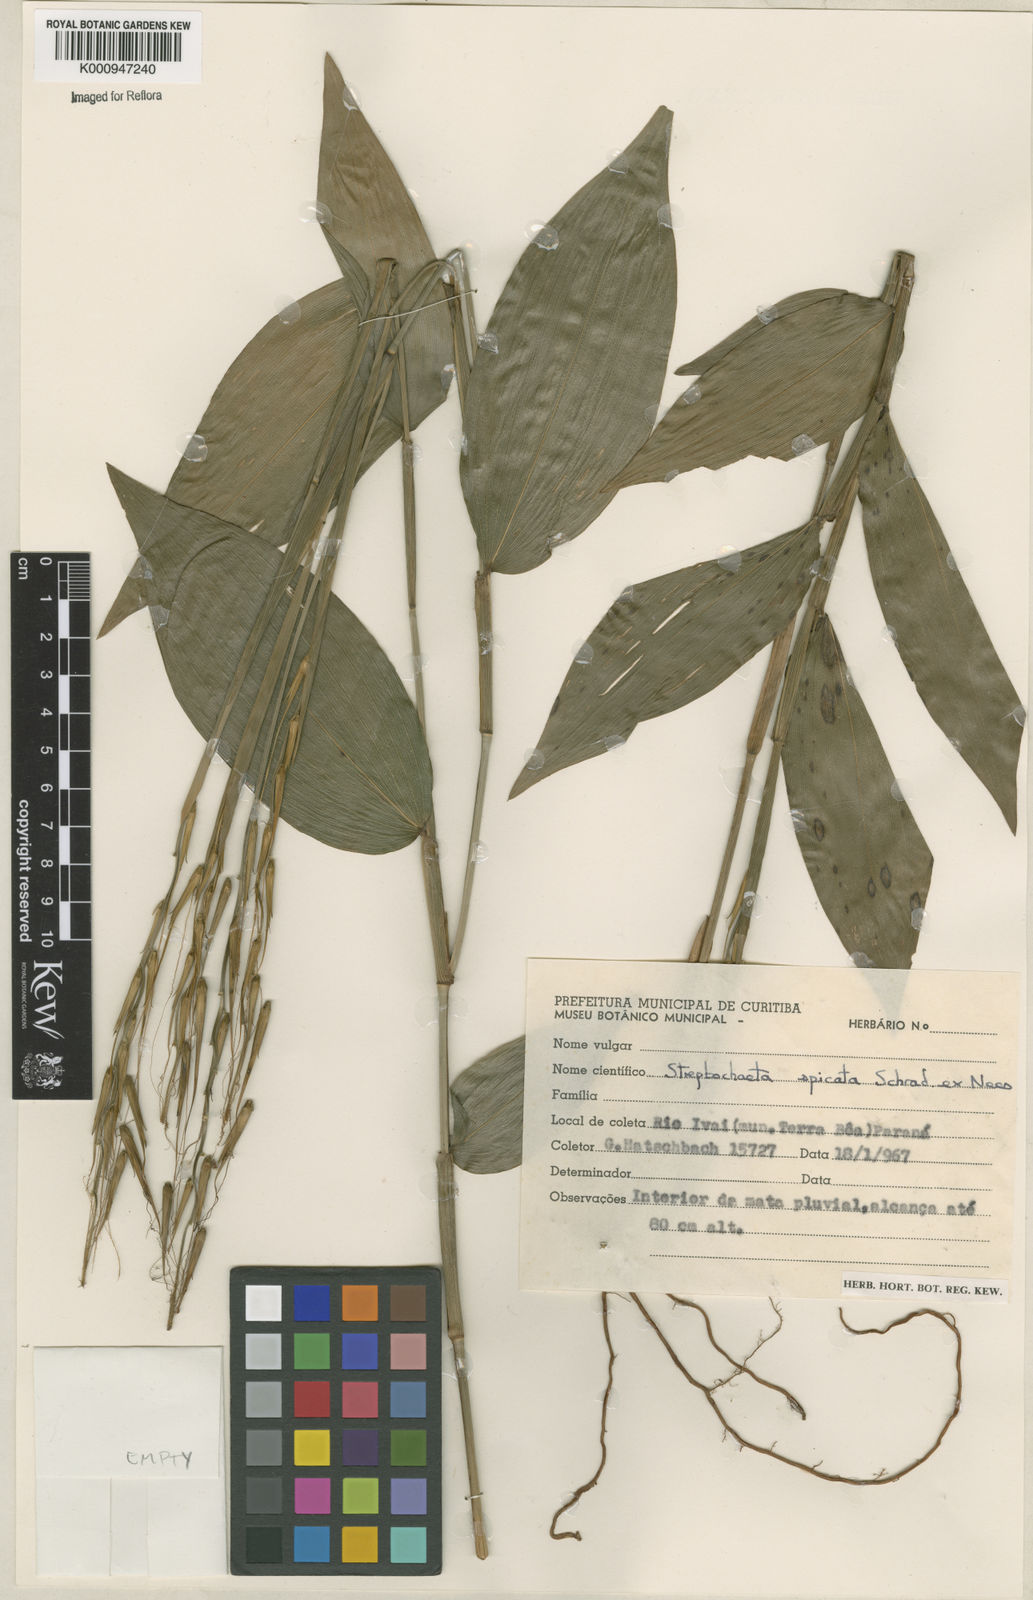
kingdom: Plantae
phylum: Tracheophyta
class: Liliopsida
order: Poales
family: Poaceae
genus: Streptochaeta
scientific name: Streptochaeta spicata
